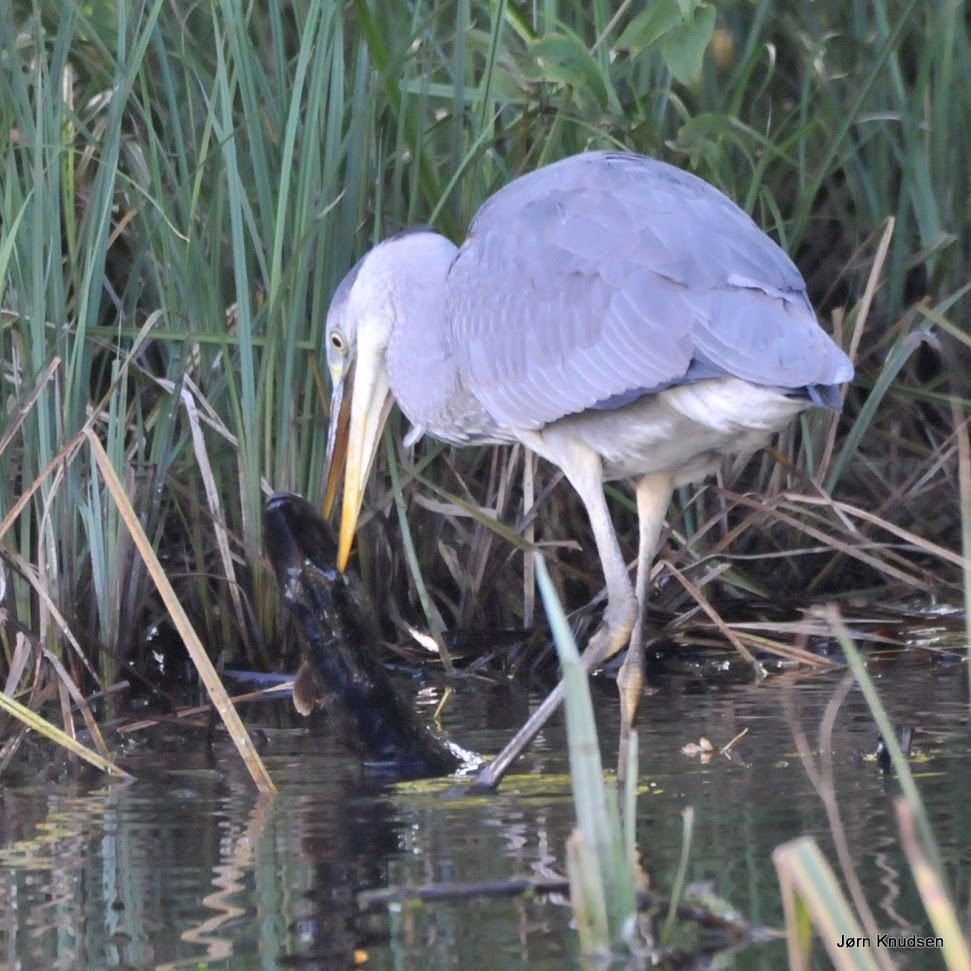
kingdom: Animalia
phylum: Chordata
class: Aves
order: Pelecaniformes
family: Ardeidae
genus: Ardea
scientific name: Ardea cinerea
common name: Fiskehejre
